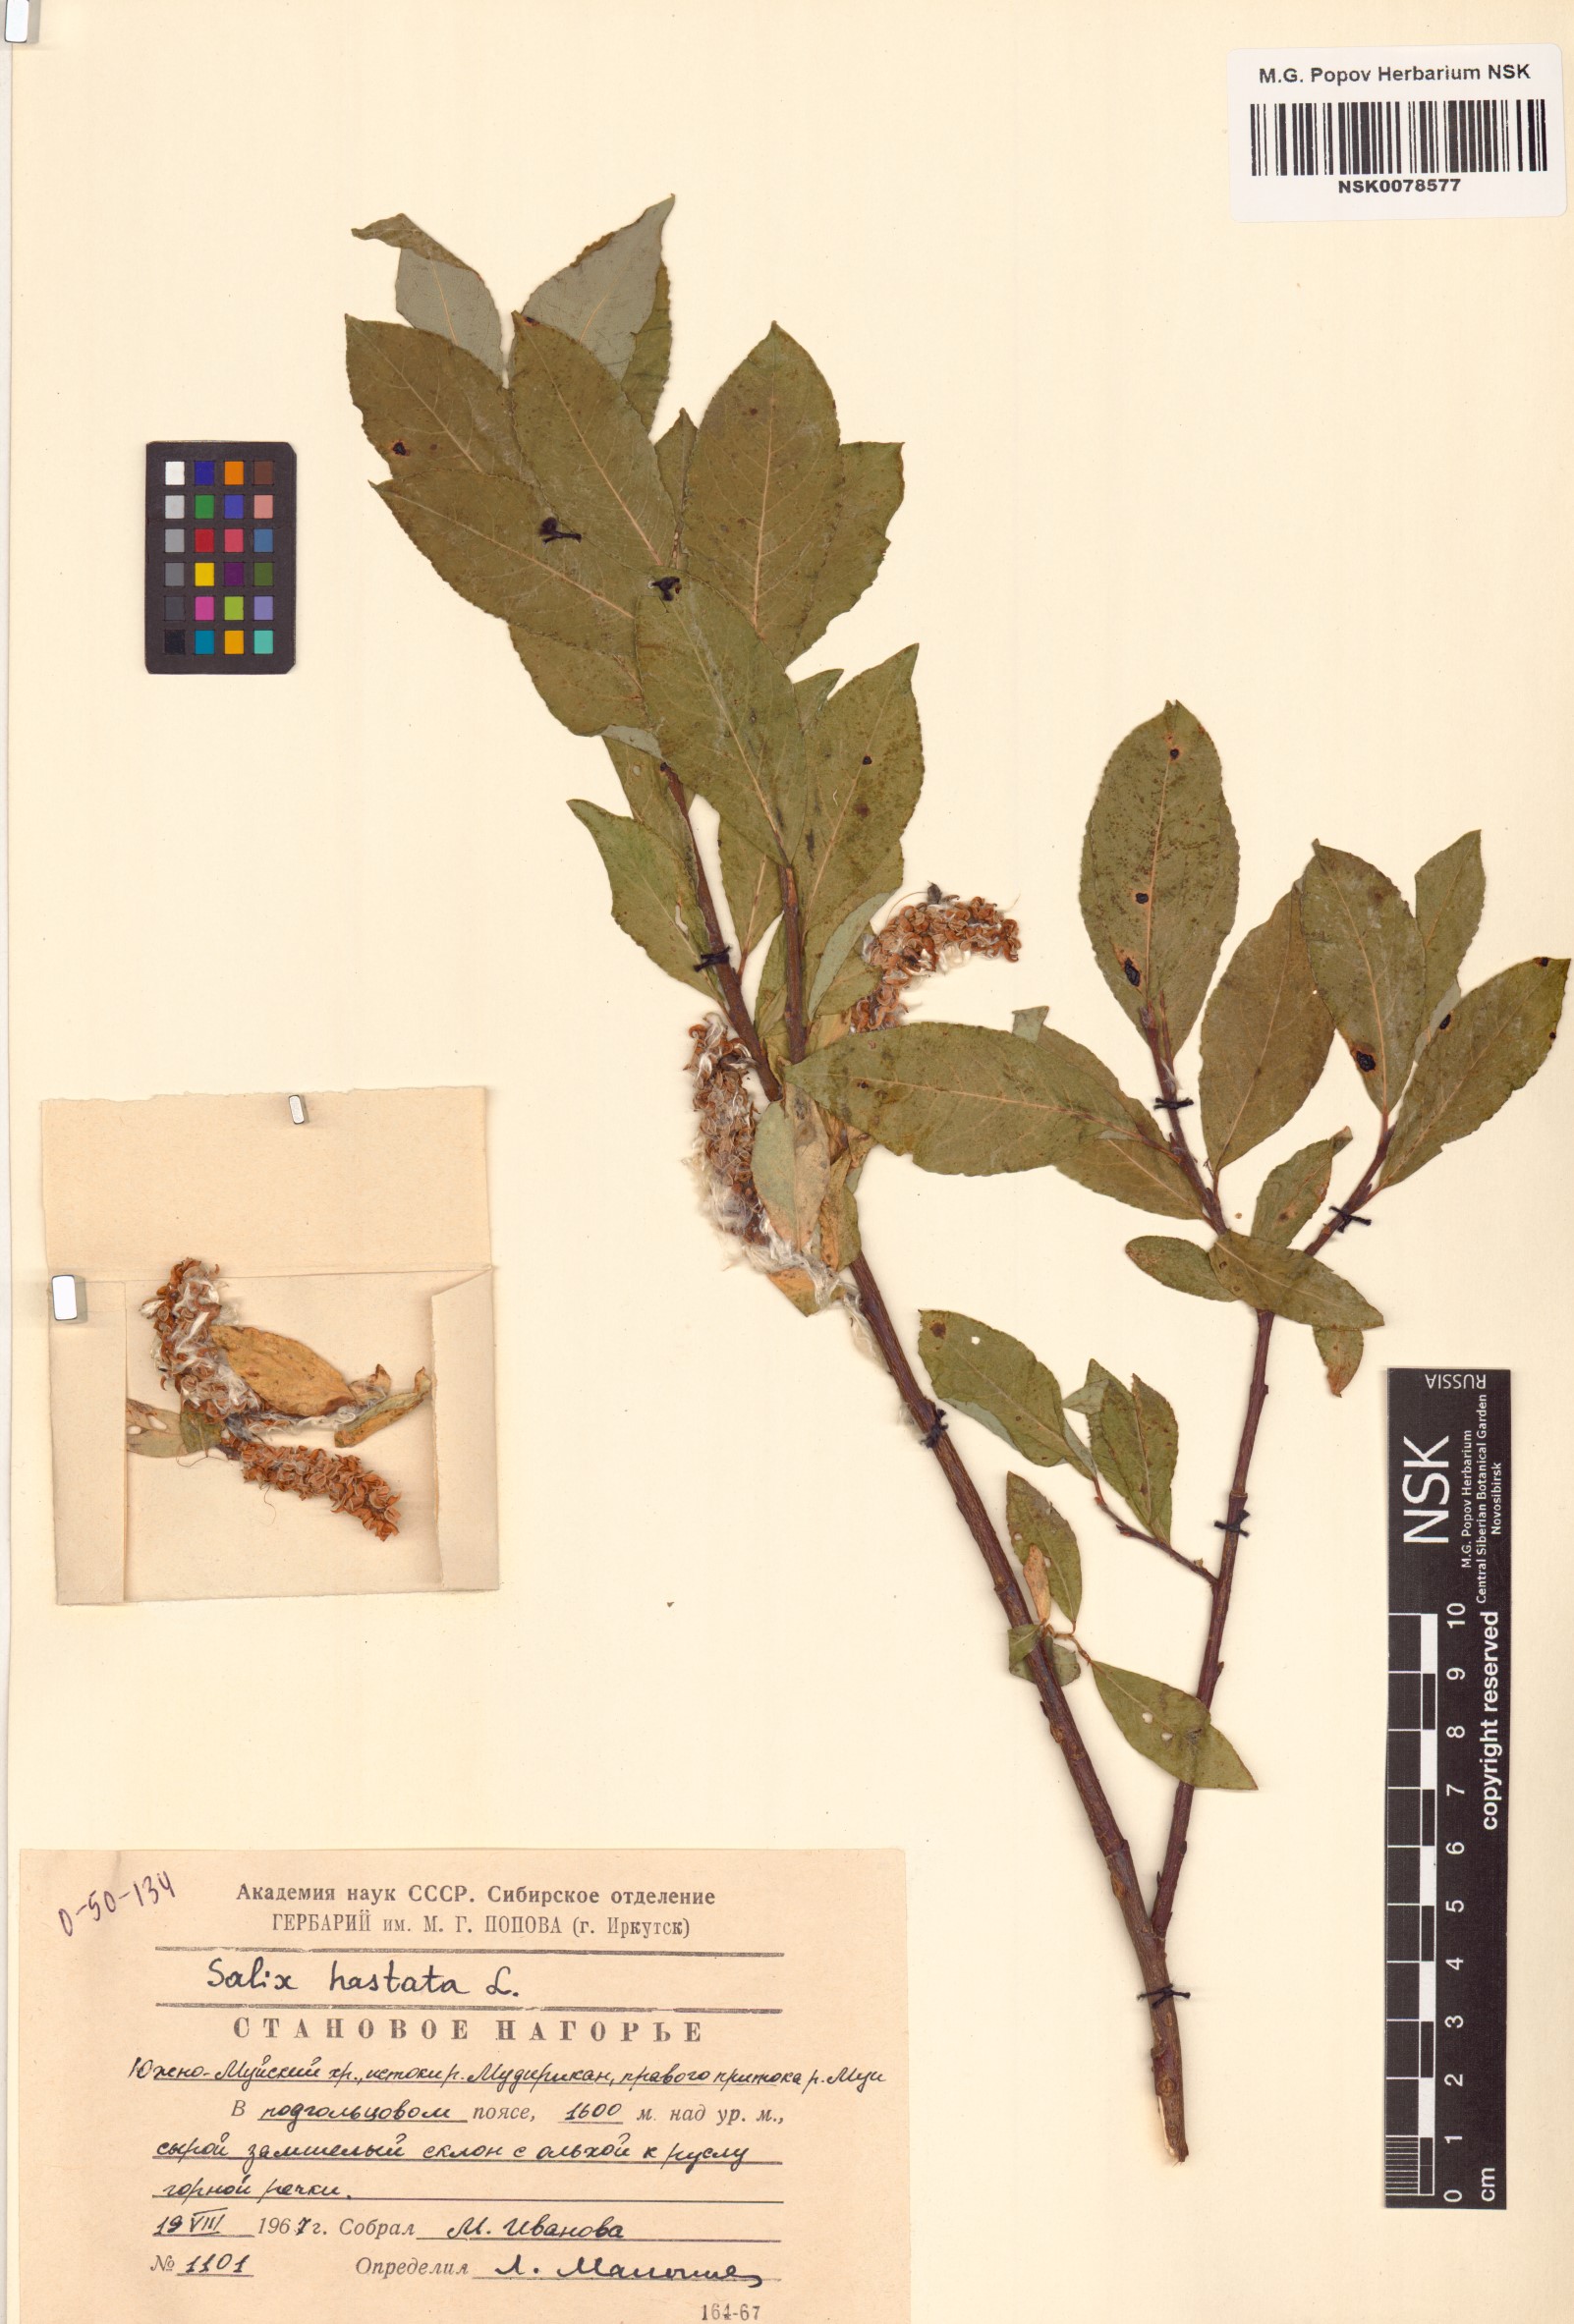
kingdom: Plantae
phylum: Tracheophyta
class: Magnoliopsida
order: Malpighiales
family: Salicaceae
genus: Salix
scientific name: Salix hastata
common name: Halberd willow
